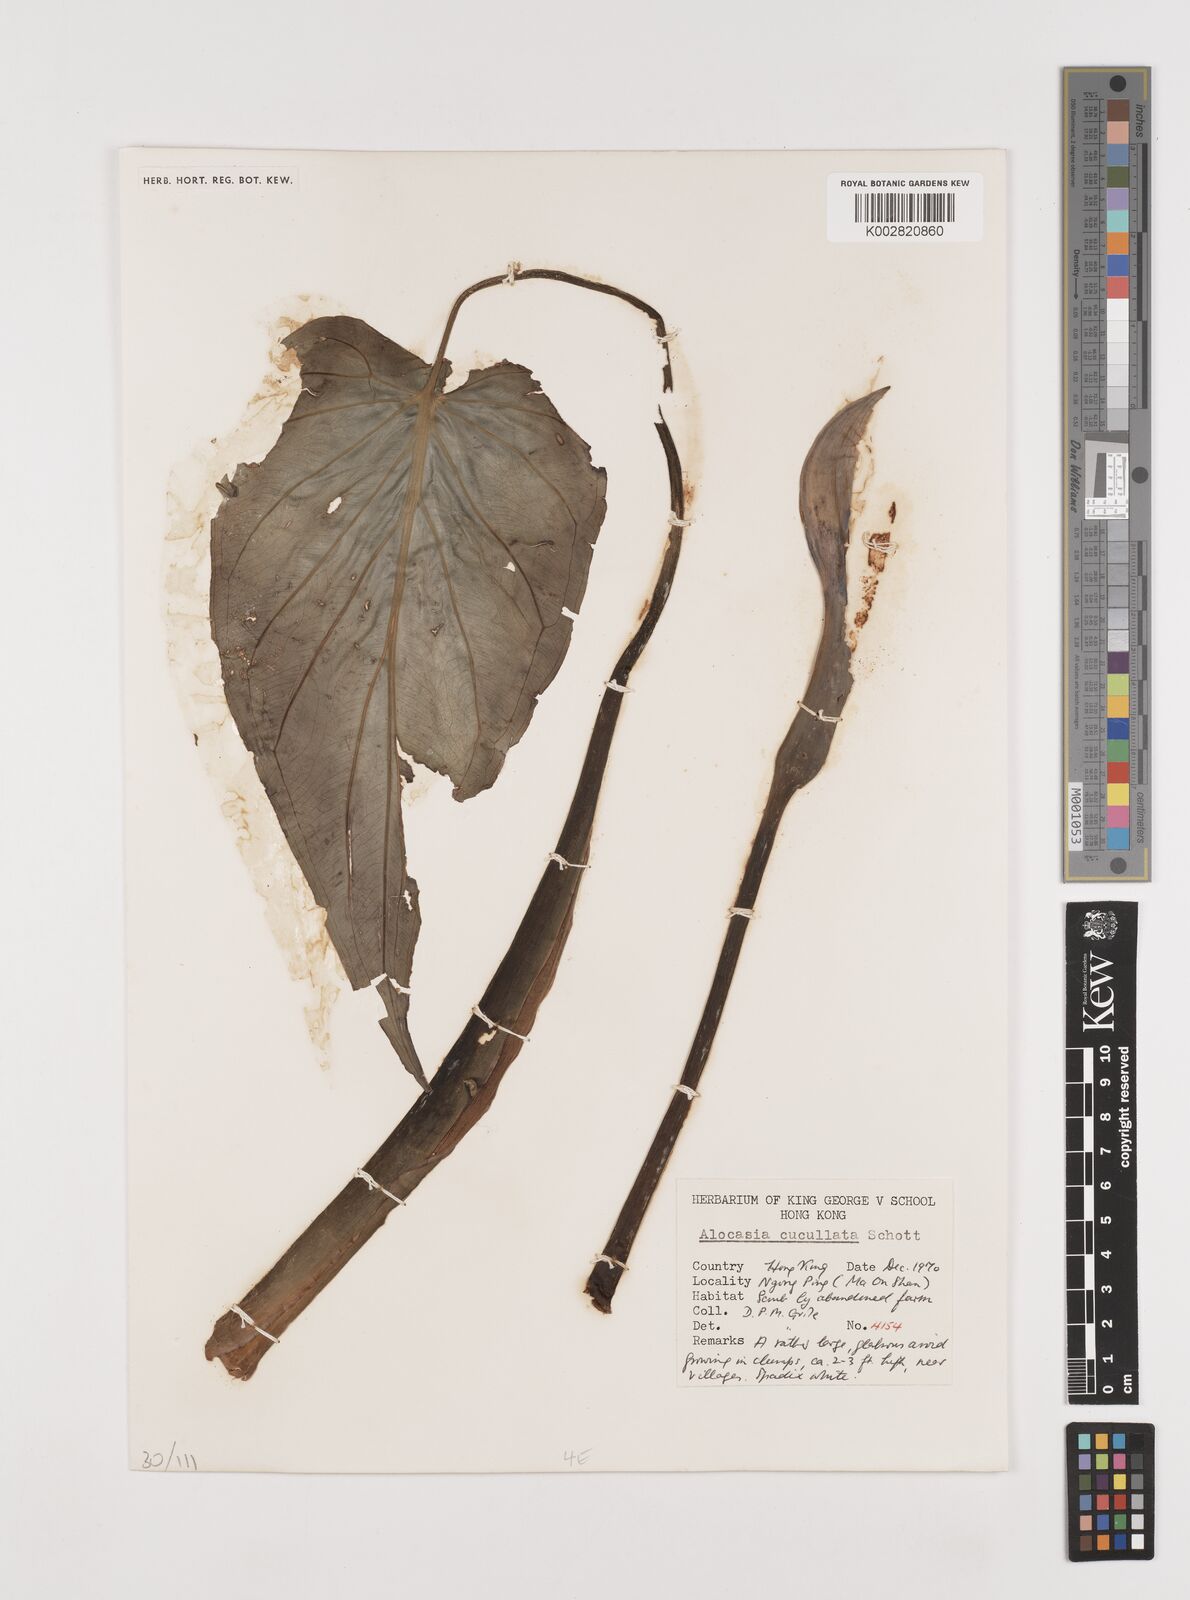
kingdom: Plantae
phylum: Tracheophyta
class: Liliopsida
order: Alismatales
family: Araceae
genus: Alocasia
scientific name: Alocasia cucullata
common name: Buddha's hand
